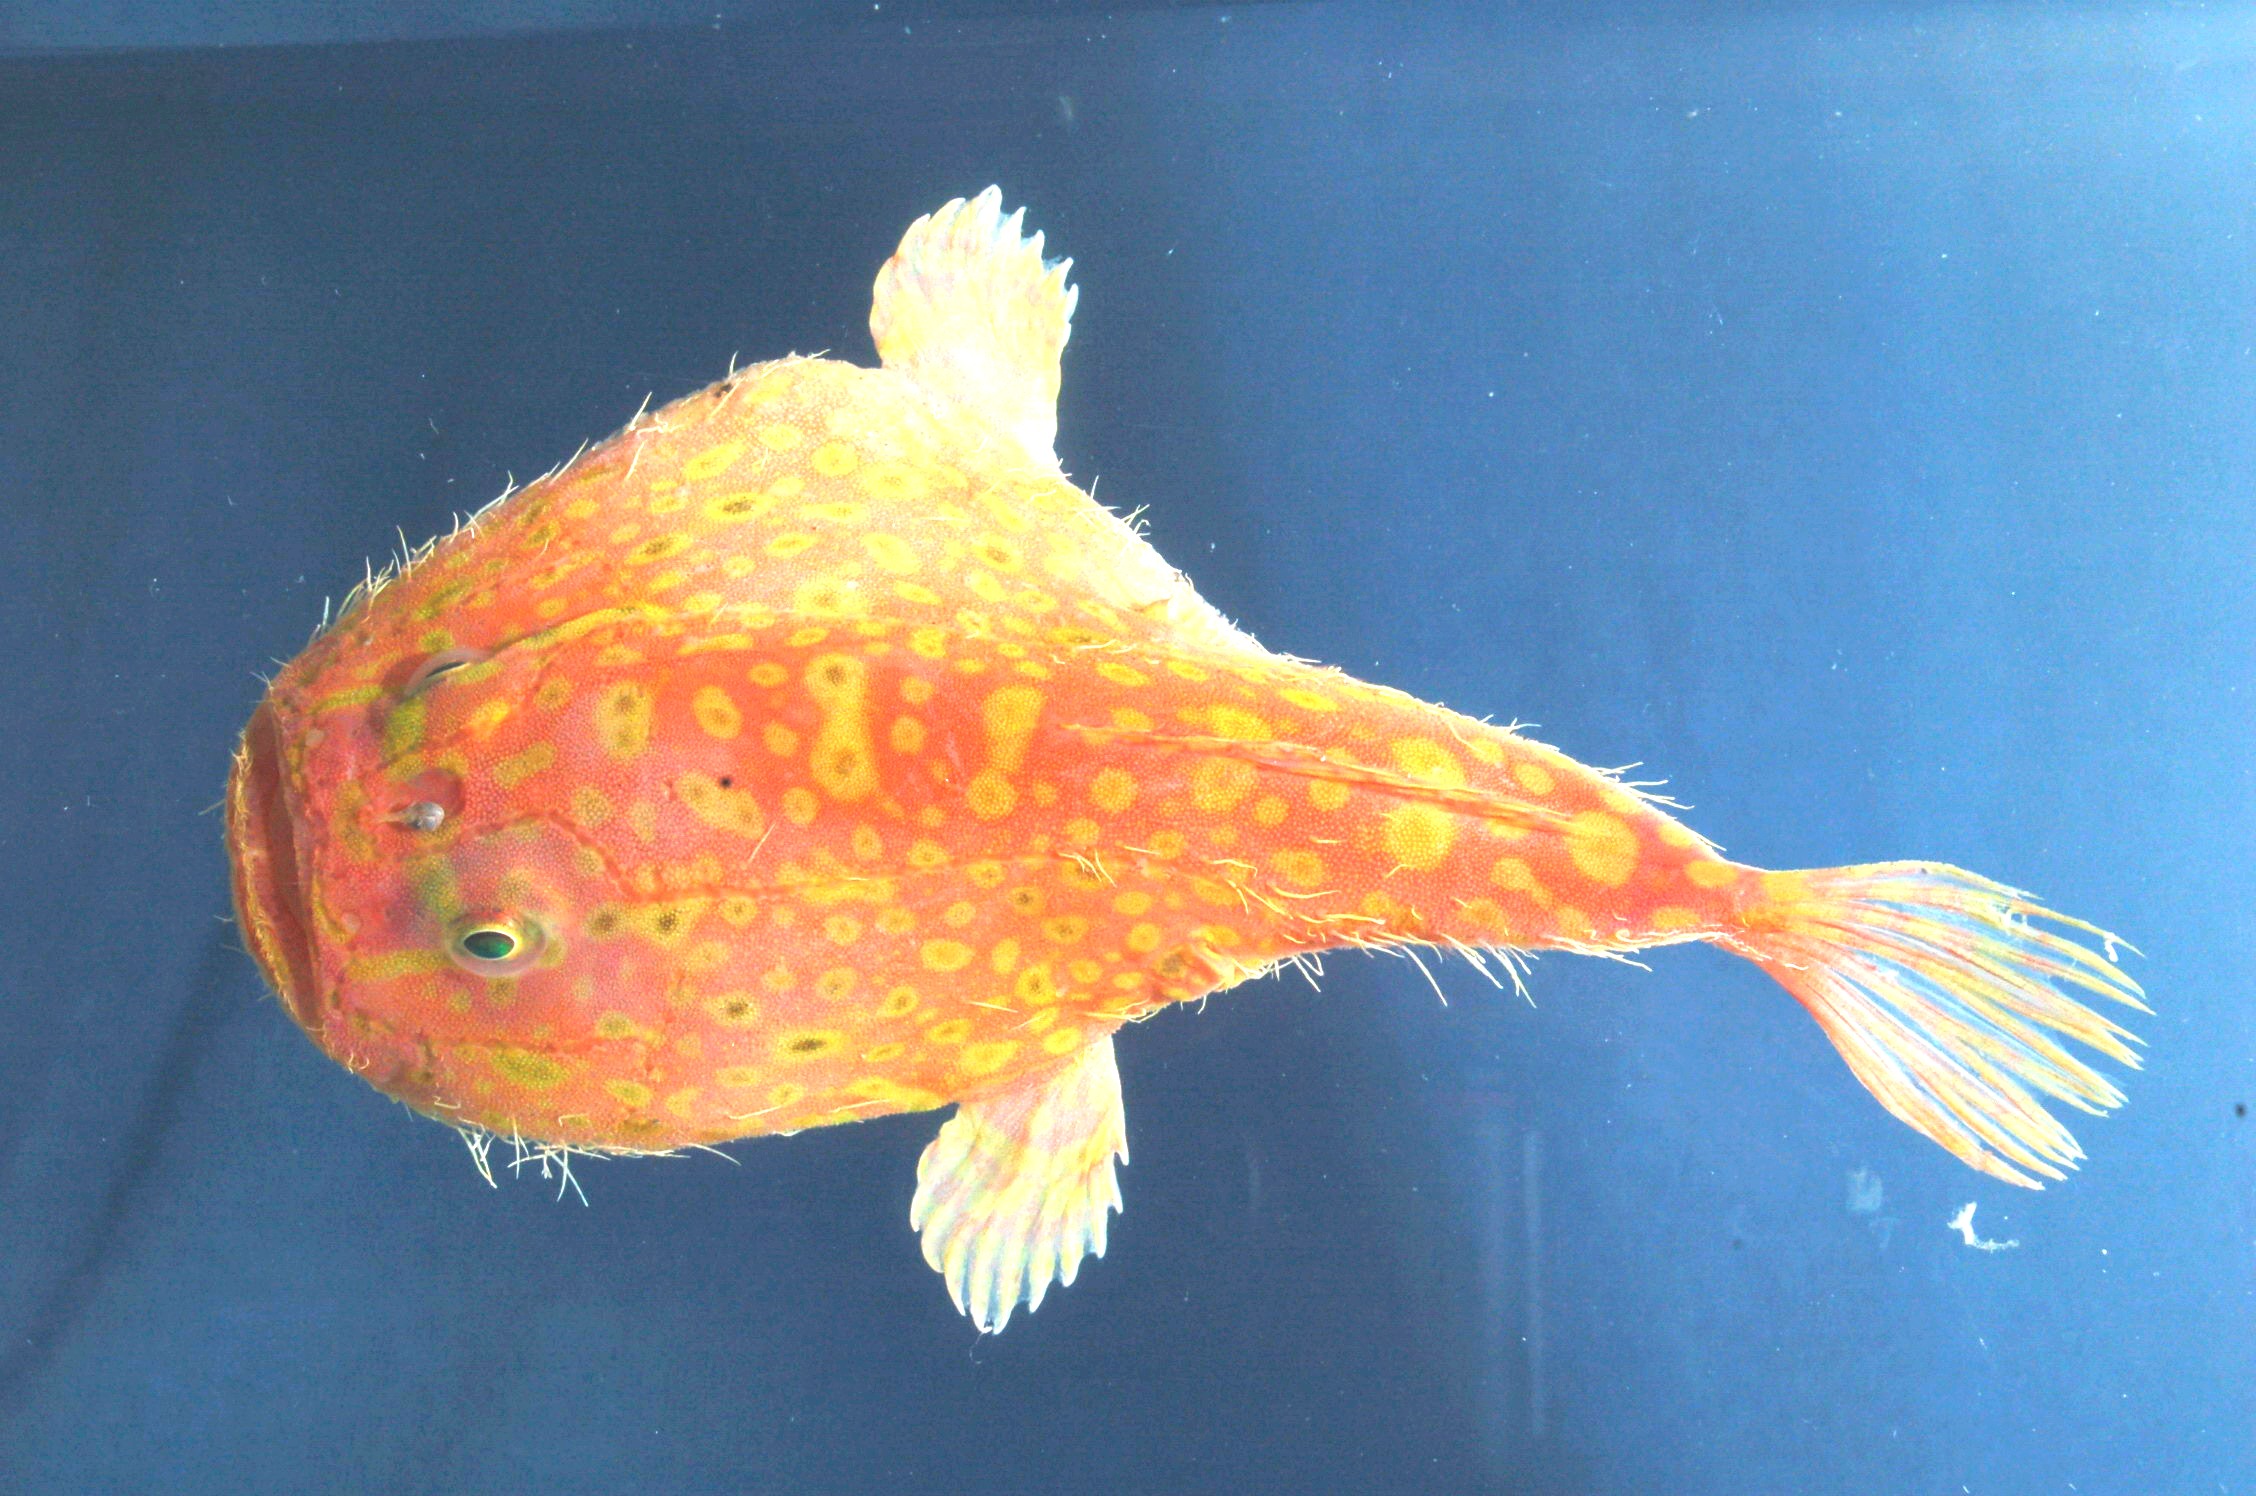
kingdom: Animalia
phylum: Chordata
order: Lophiiformes
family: Chaunacidae
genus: Chaunax
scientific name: Chaunax fimbriatus
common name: Tassled coffinfish
